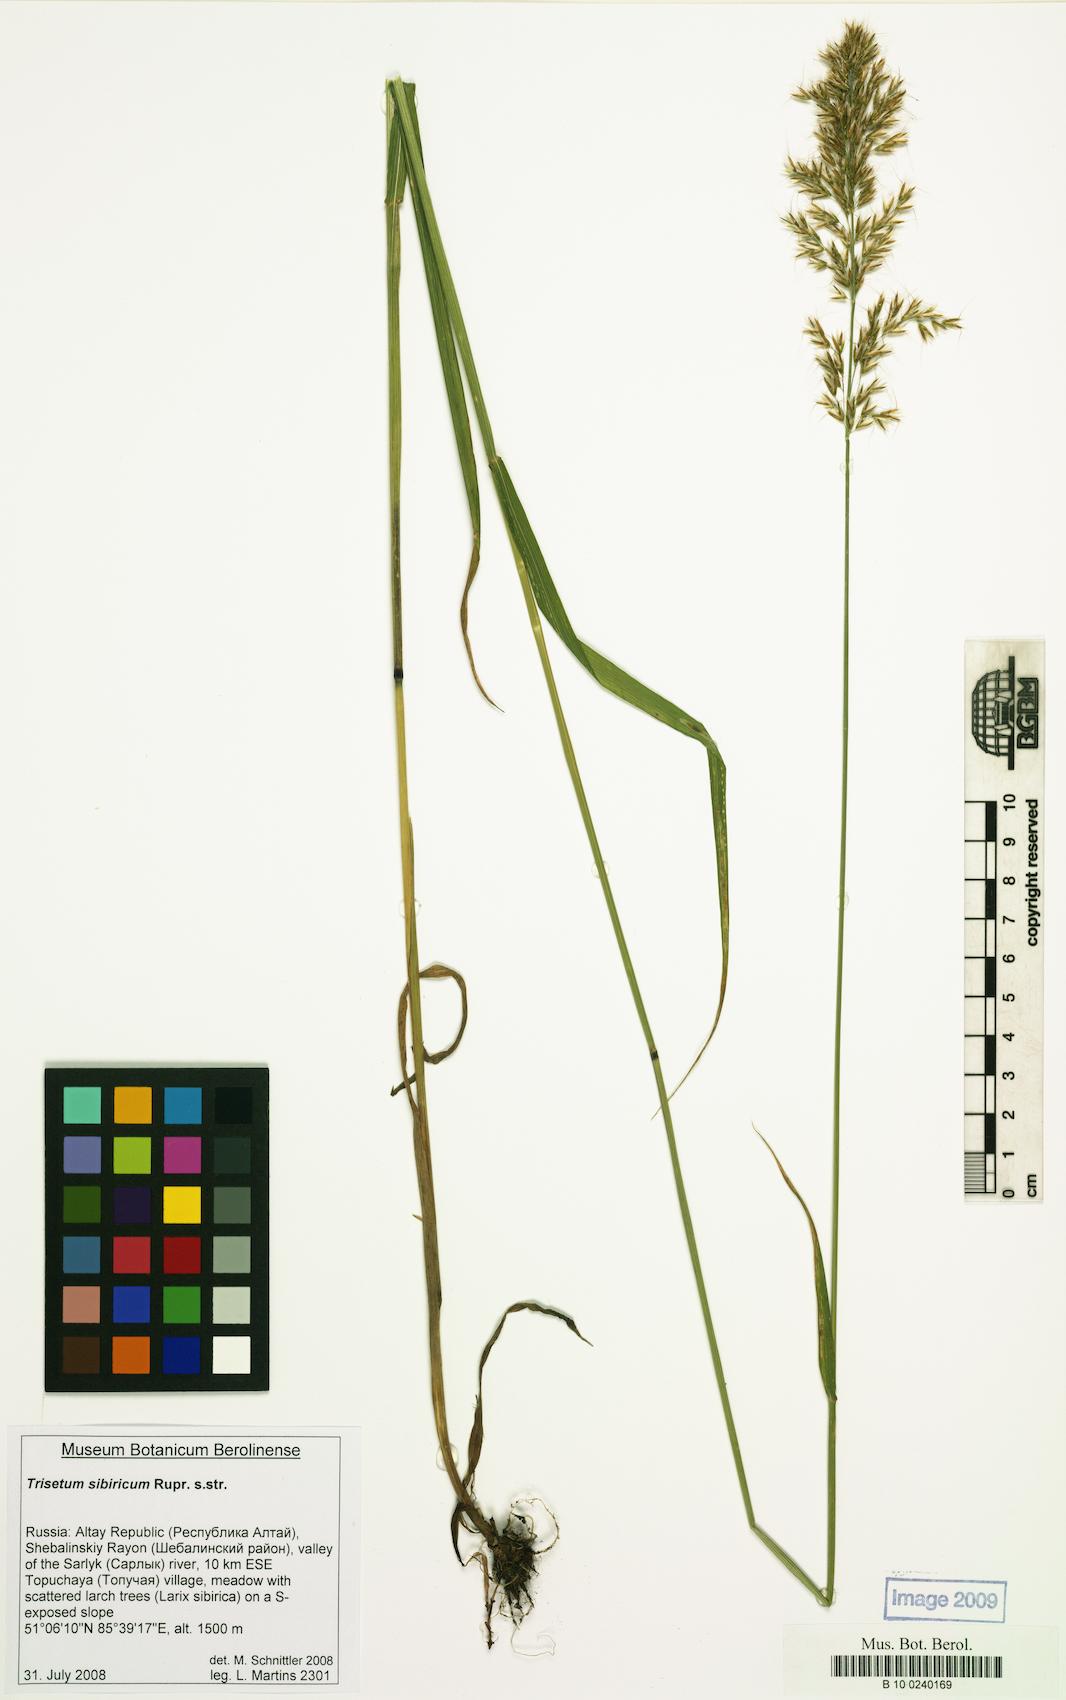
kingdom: Plantae
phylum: Tracheophyta
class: Liliopsida
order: Poales
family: Poaceae
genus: Sibirotrisetum
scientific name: Sibirotrisetum sibiricum
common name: Siberian false oat
